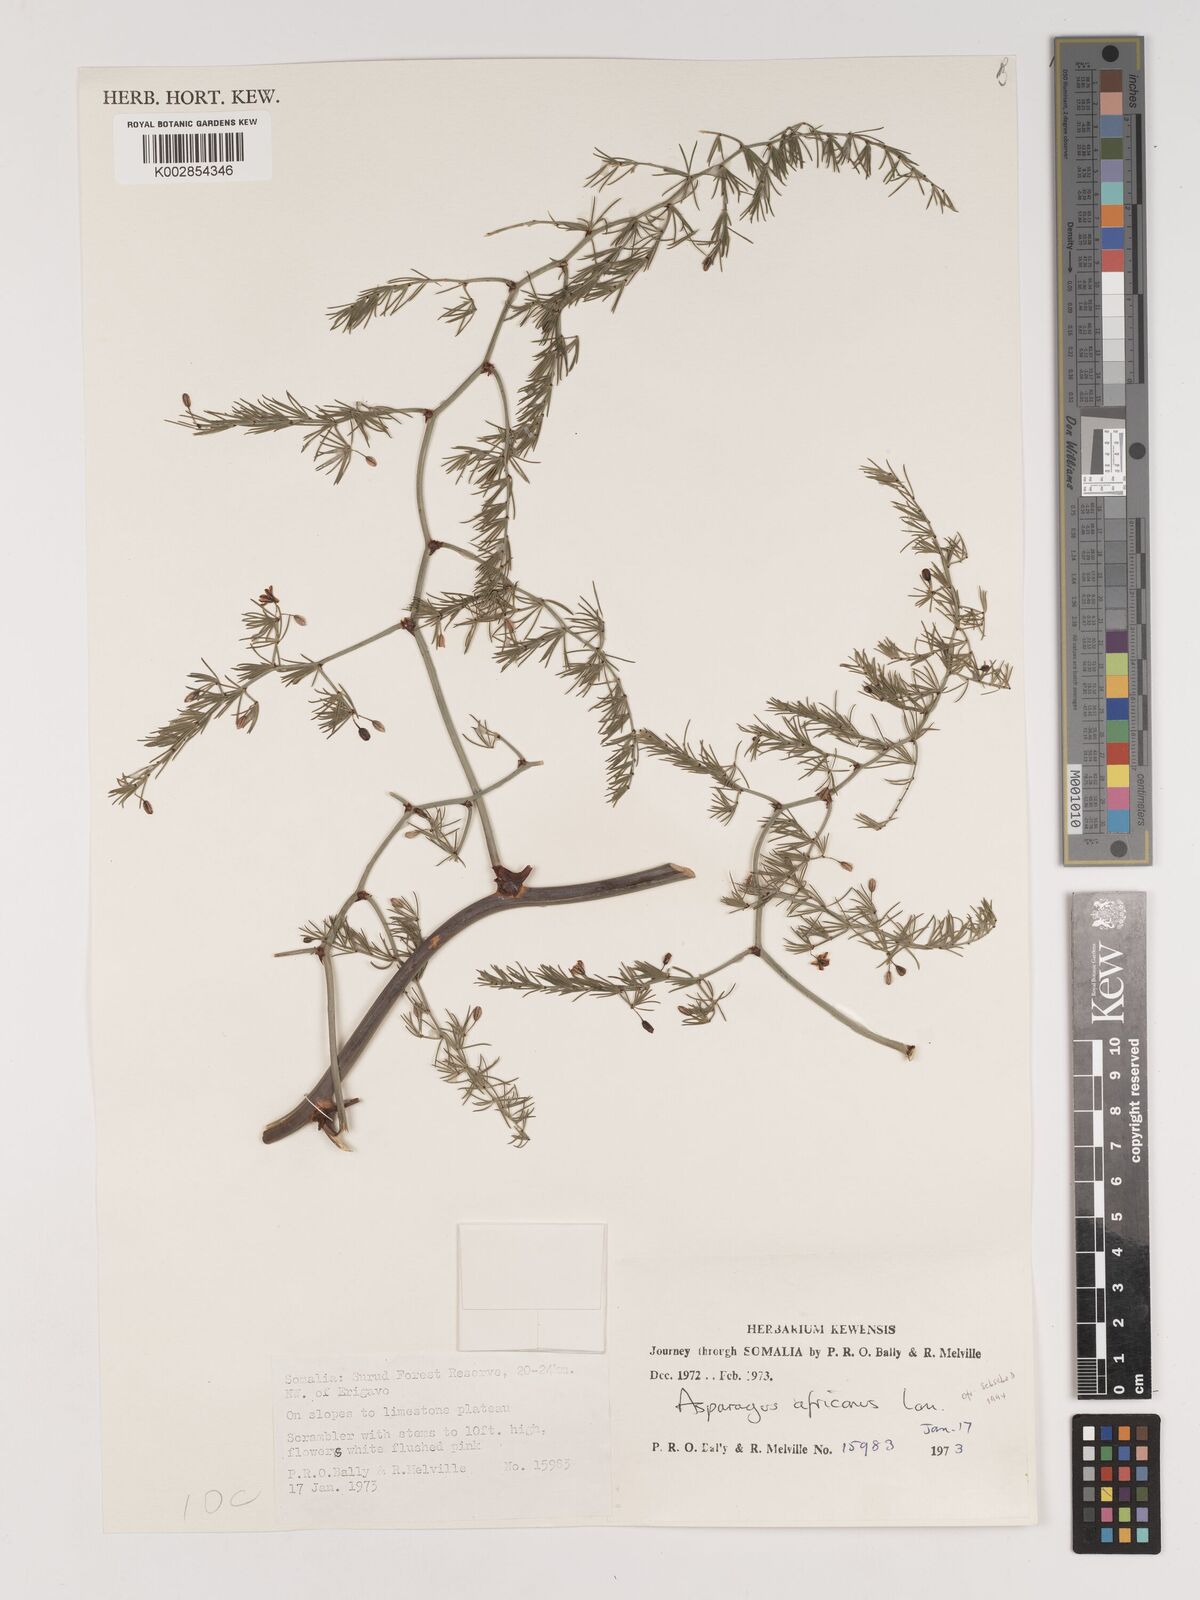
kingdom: Plantae
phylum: Tracheophyta
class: Liliopsida
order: Asparagales
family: Asparagaceae
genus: Asparagus
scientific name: Asparagus africanus
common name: Asparagus-fern
